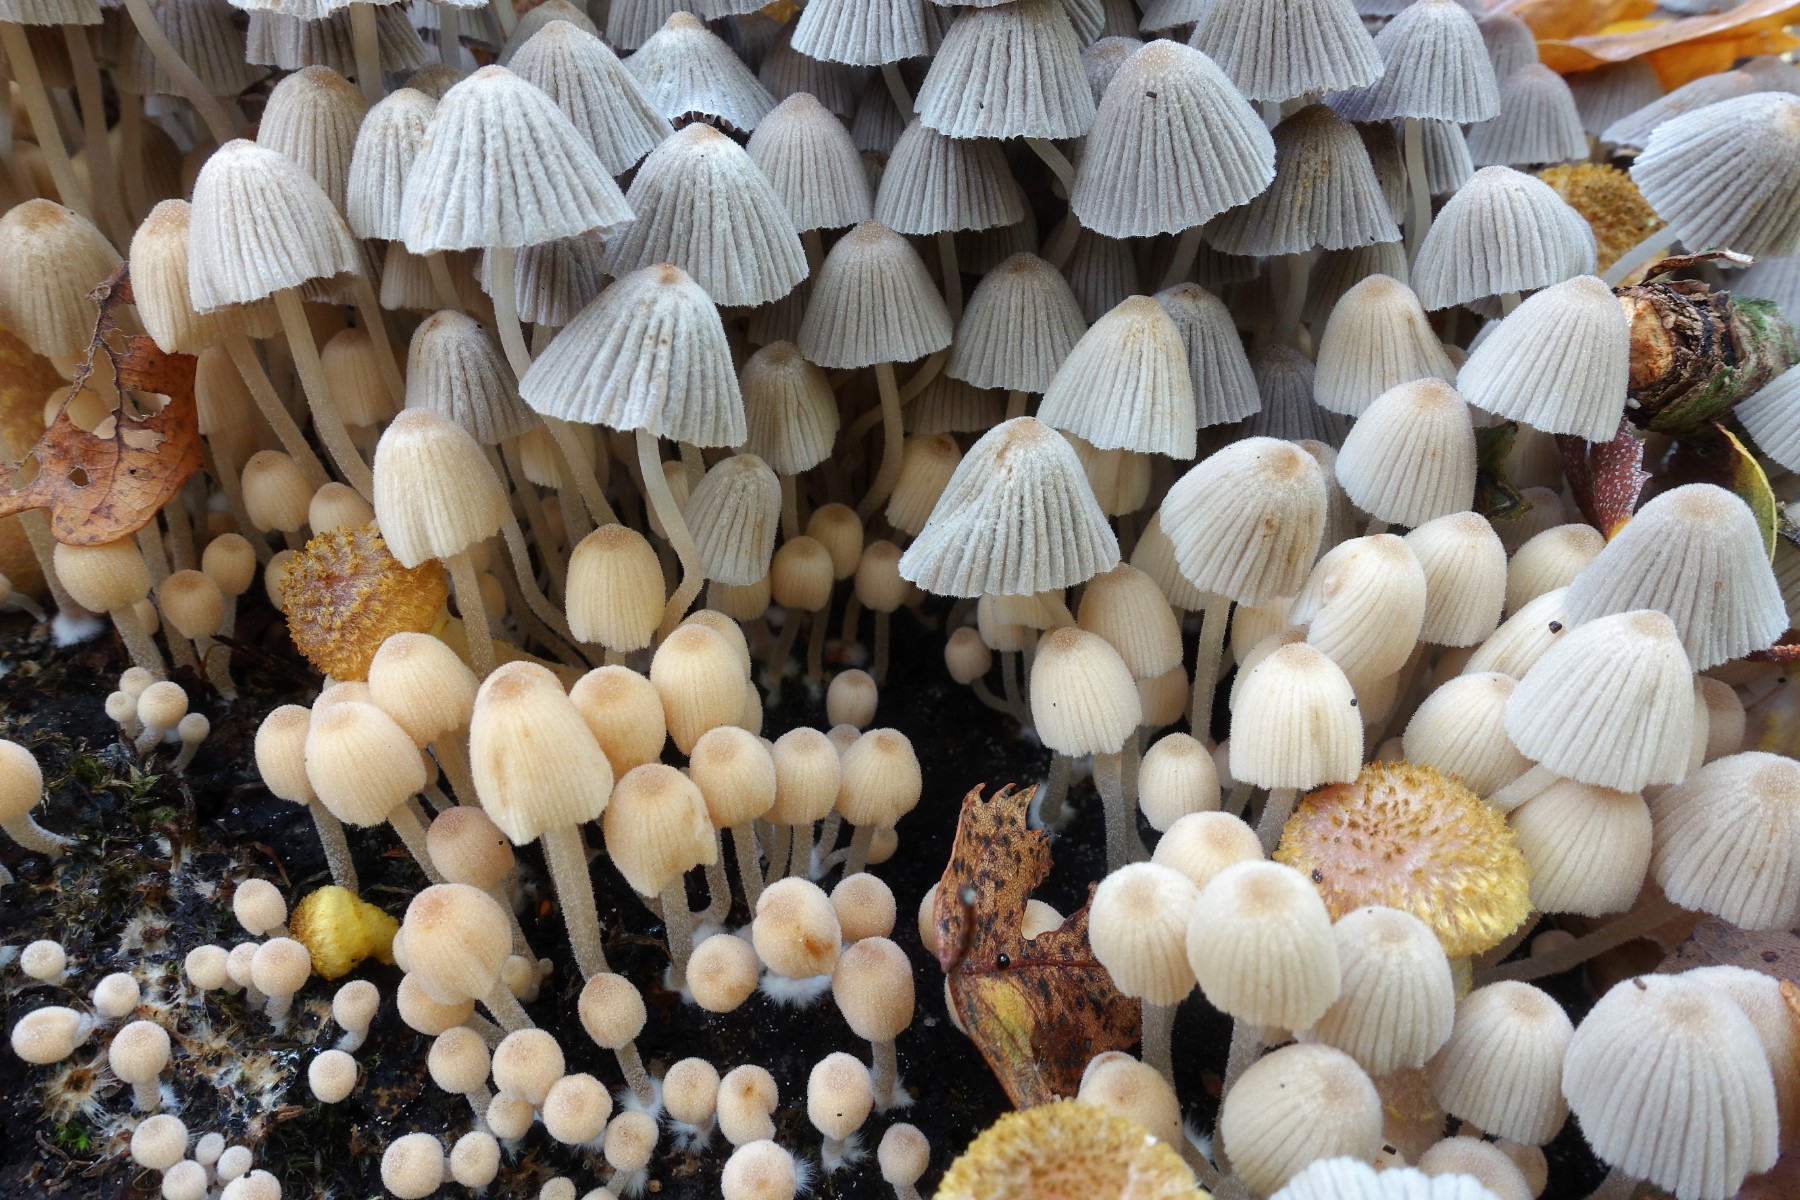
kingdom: Fungi
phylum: Basidiomycota
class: Agaricomycetes
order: Agaricales
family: Psathyrellaceae
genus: Coprinellus
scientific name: Coprinellus disseminatus
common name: bredsået blækhat
